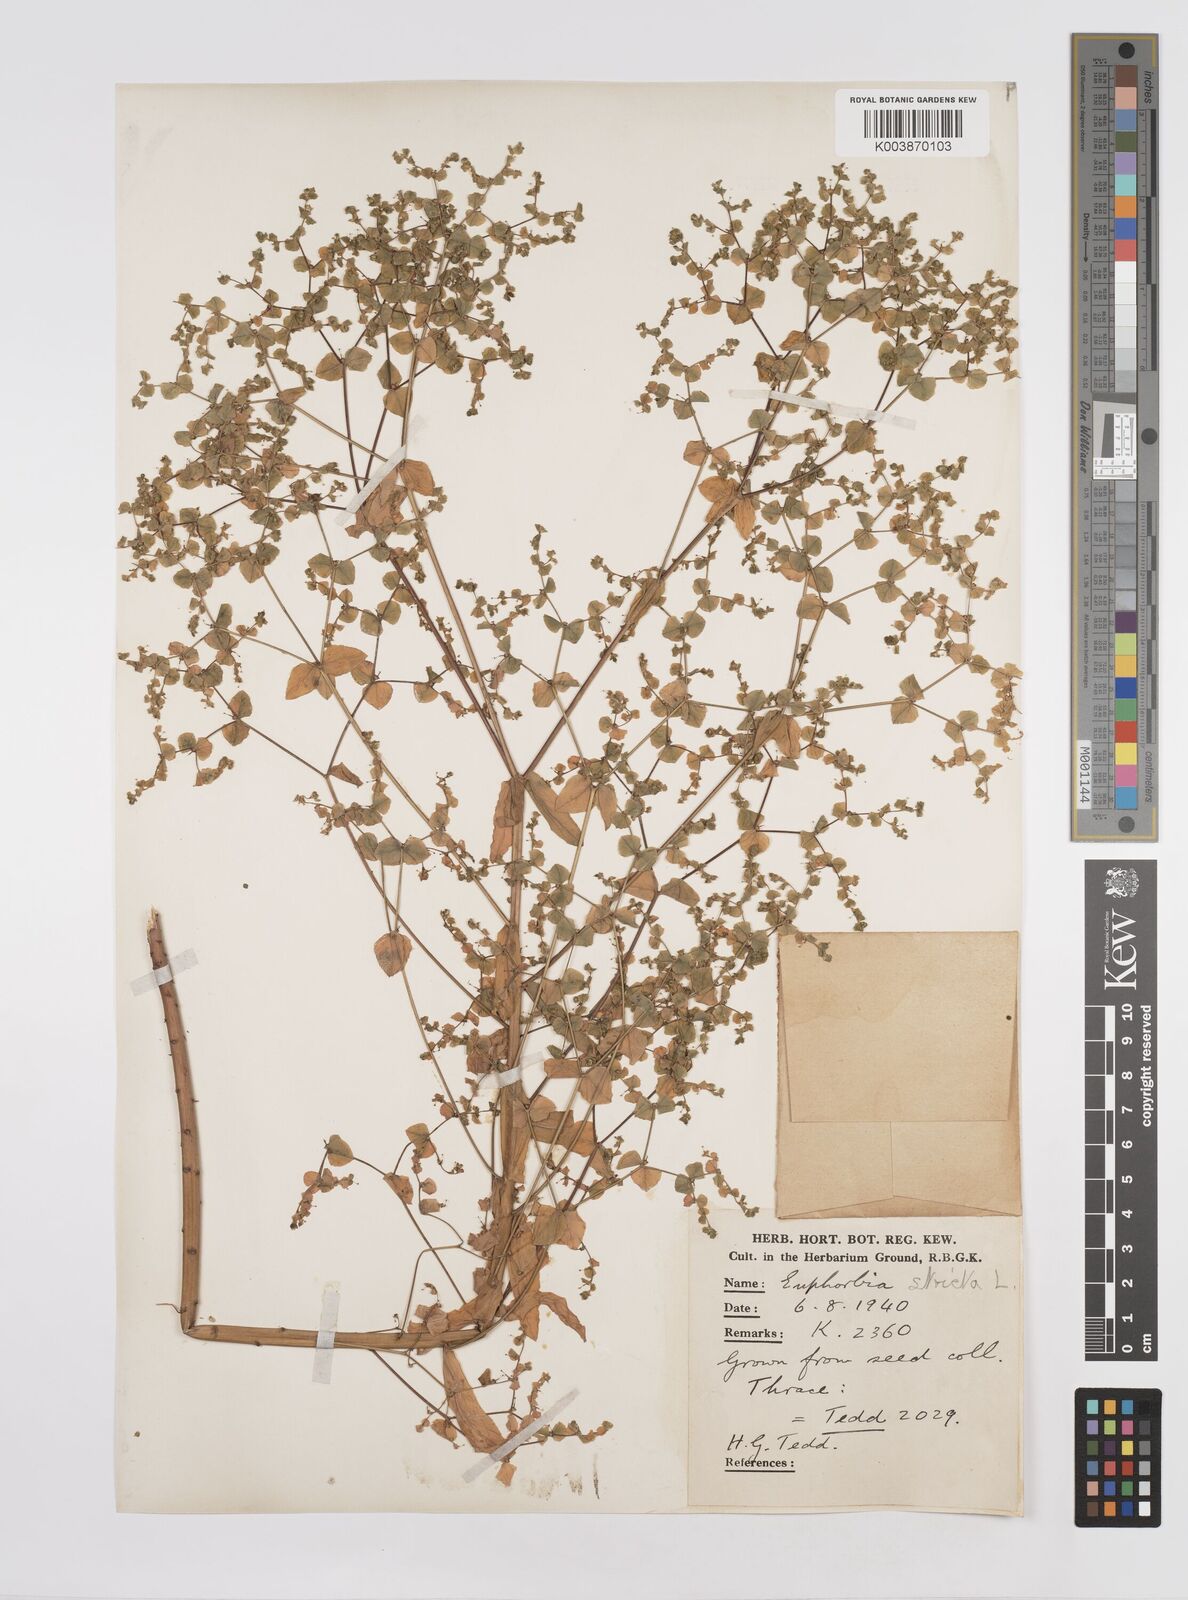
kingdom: Plantae
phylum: Tracheophyta
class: Magnoliopsida
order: Malpighiales
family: Euphorbiaceae
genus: Euphorbia
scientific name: Euphorbia stricta
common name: Upright spurge
